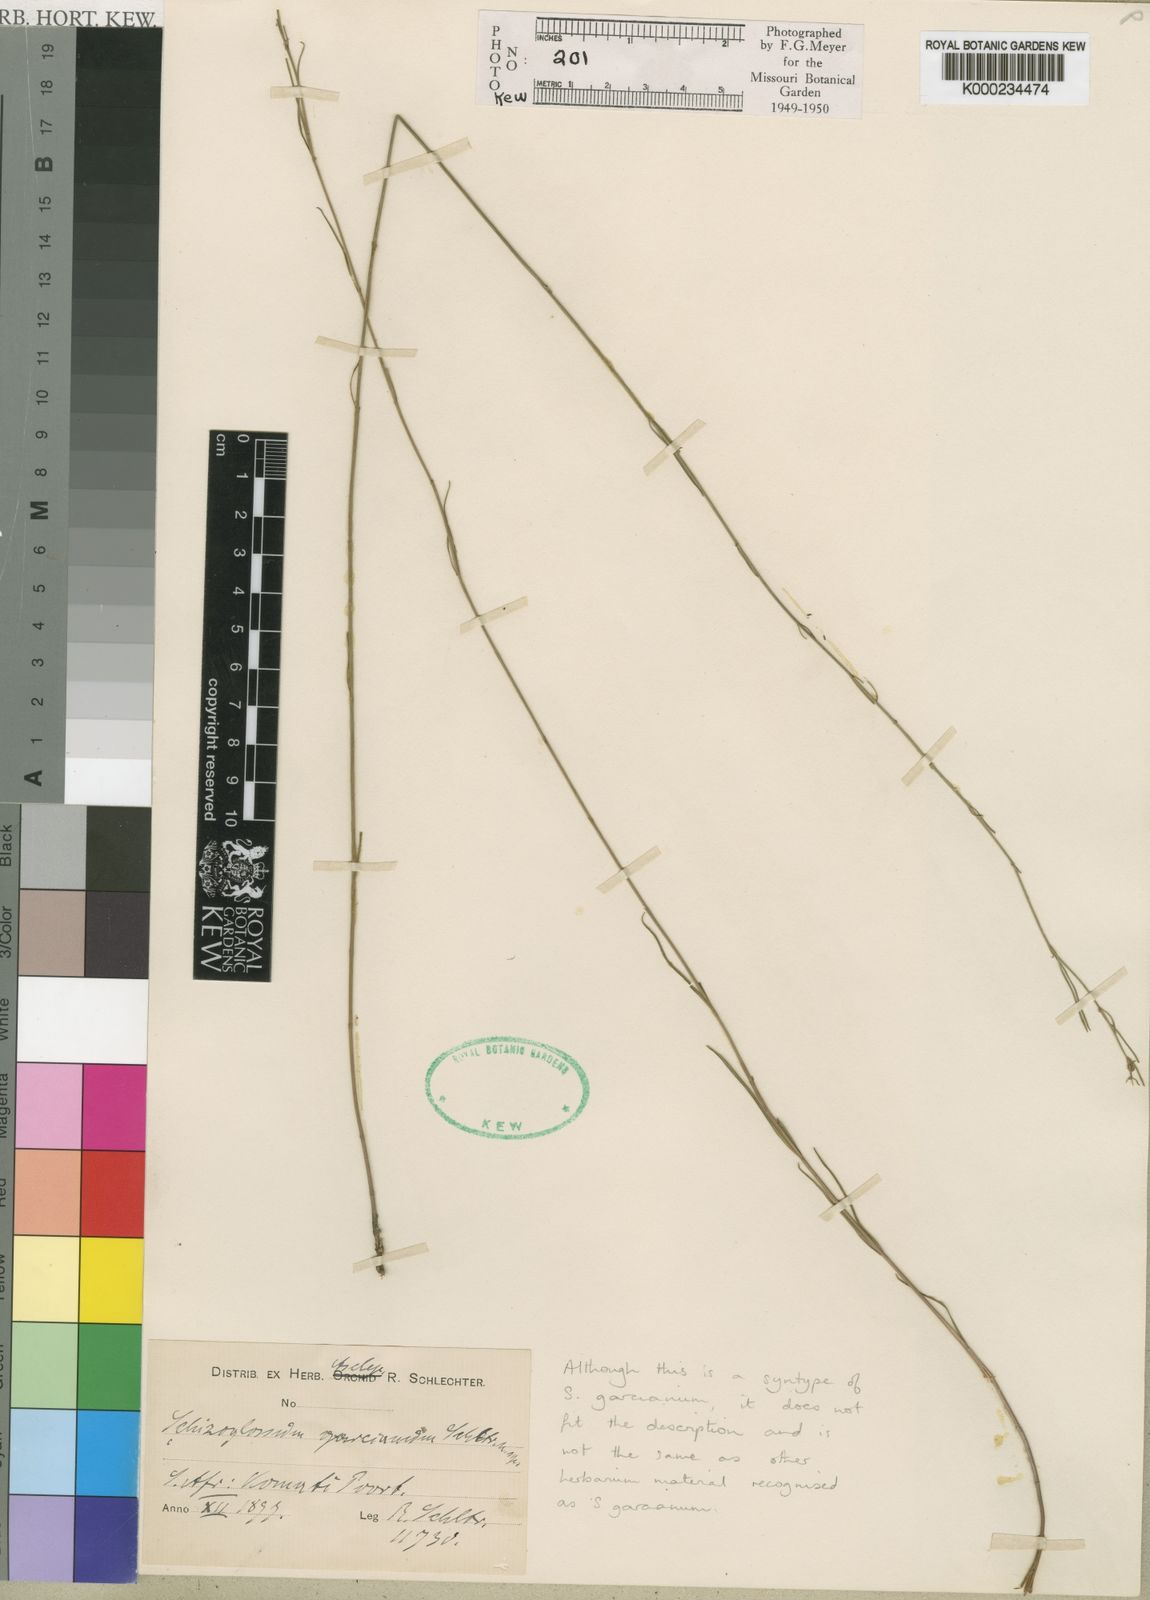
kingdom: Plantae
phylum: Tracheophyta
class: Magnoliopsida
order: Gentianales
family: Apocynaceae
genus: Schizoglossum
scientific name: Schizoglossum garcianum
